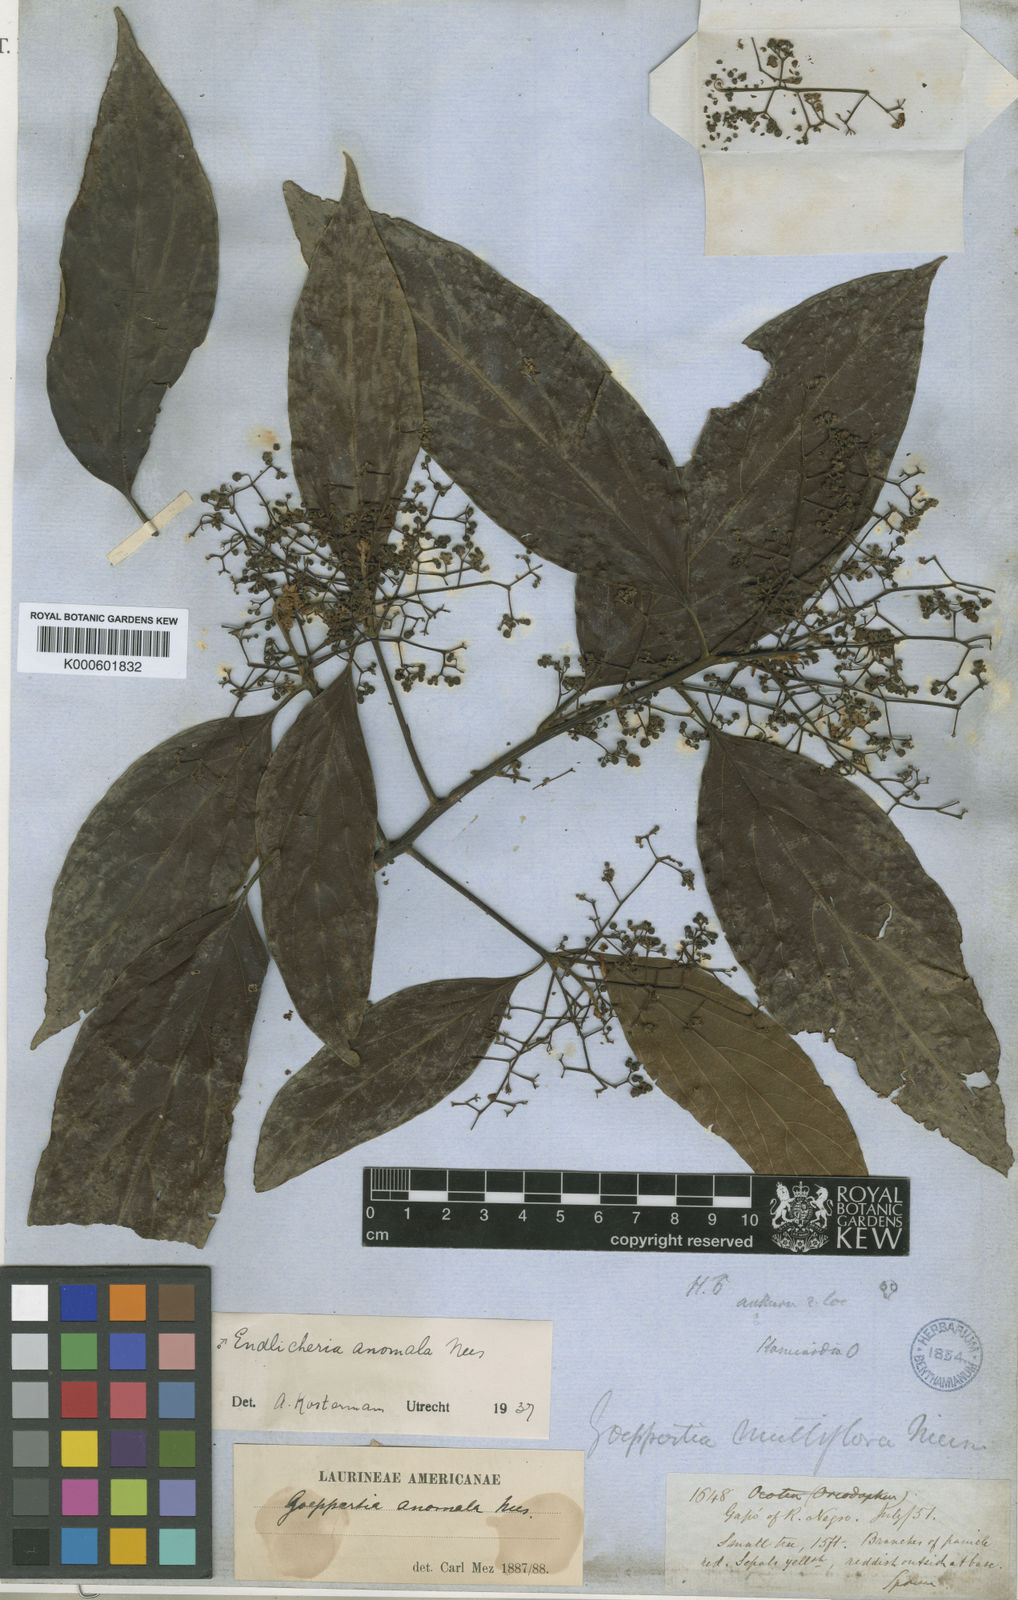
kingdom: Plantae
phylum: Tracheophyta
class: Magnoliopsida
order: Laurales
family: Lauraceae
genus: Endlicheria
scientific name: Endlicheria anomala
